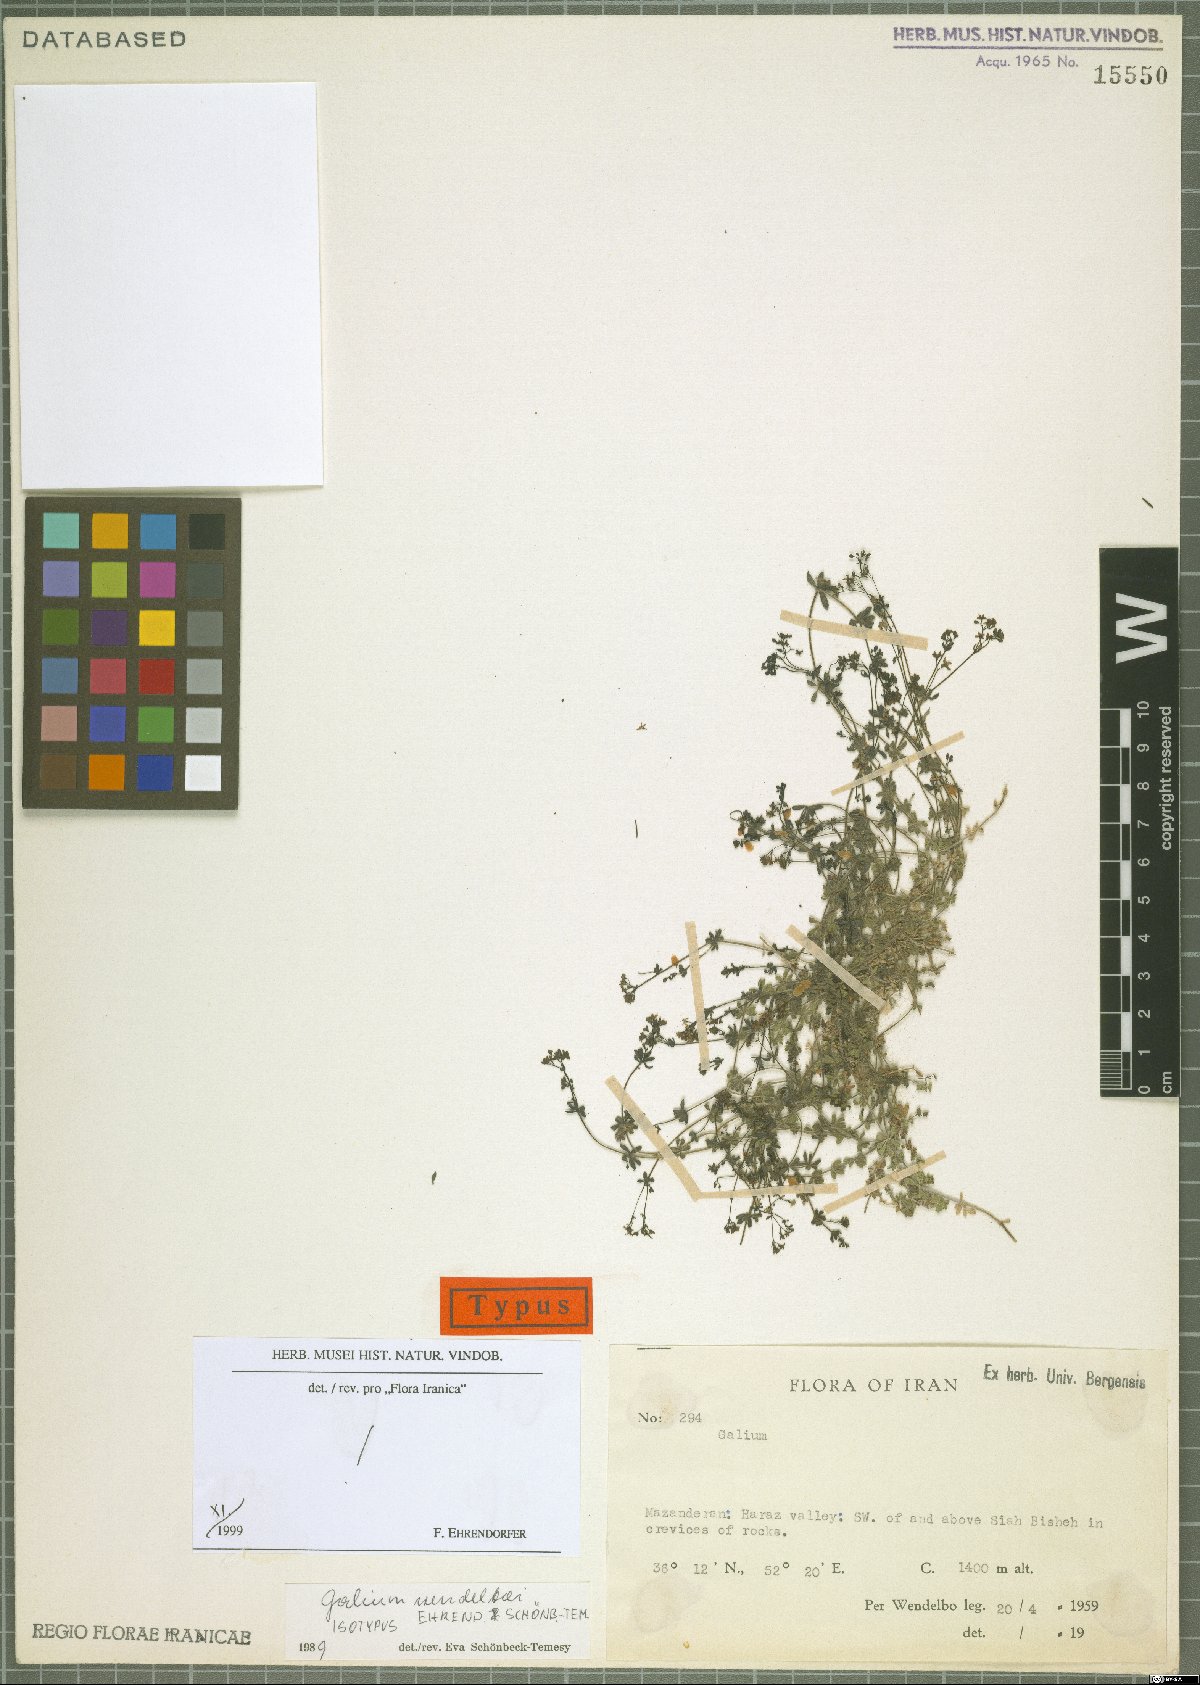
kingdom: Plantae
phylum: Tracheophyta
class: Magnoliopsida
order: Gentianales
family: Rubiaceae
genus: Galium
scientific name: Galium wendelboi
